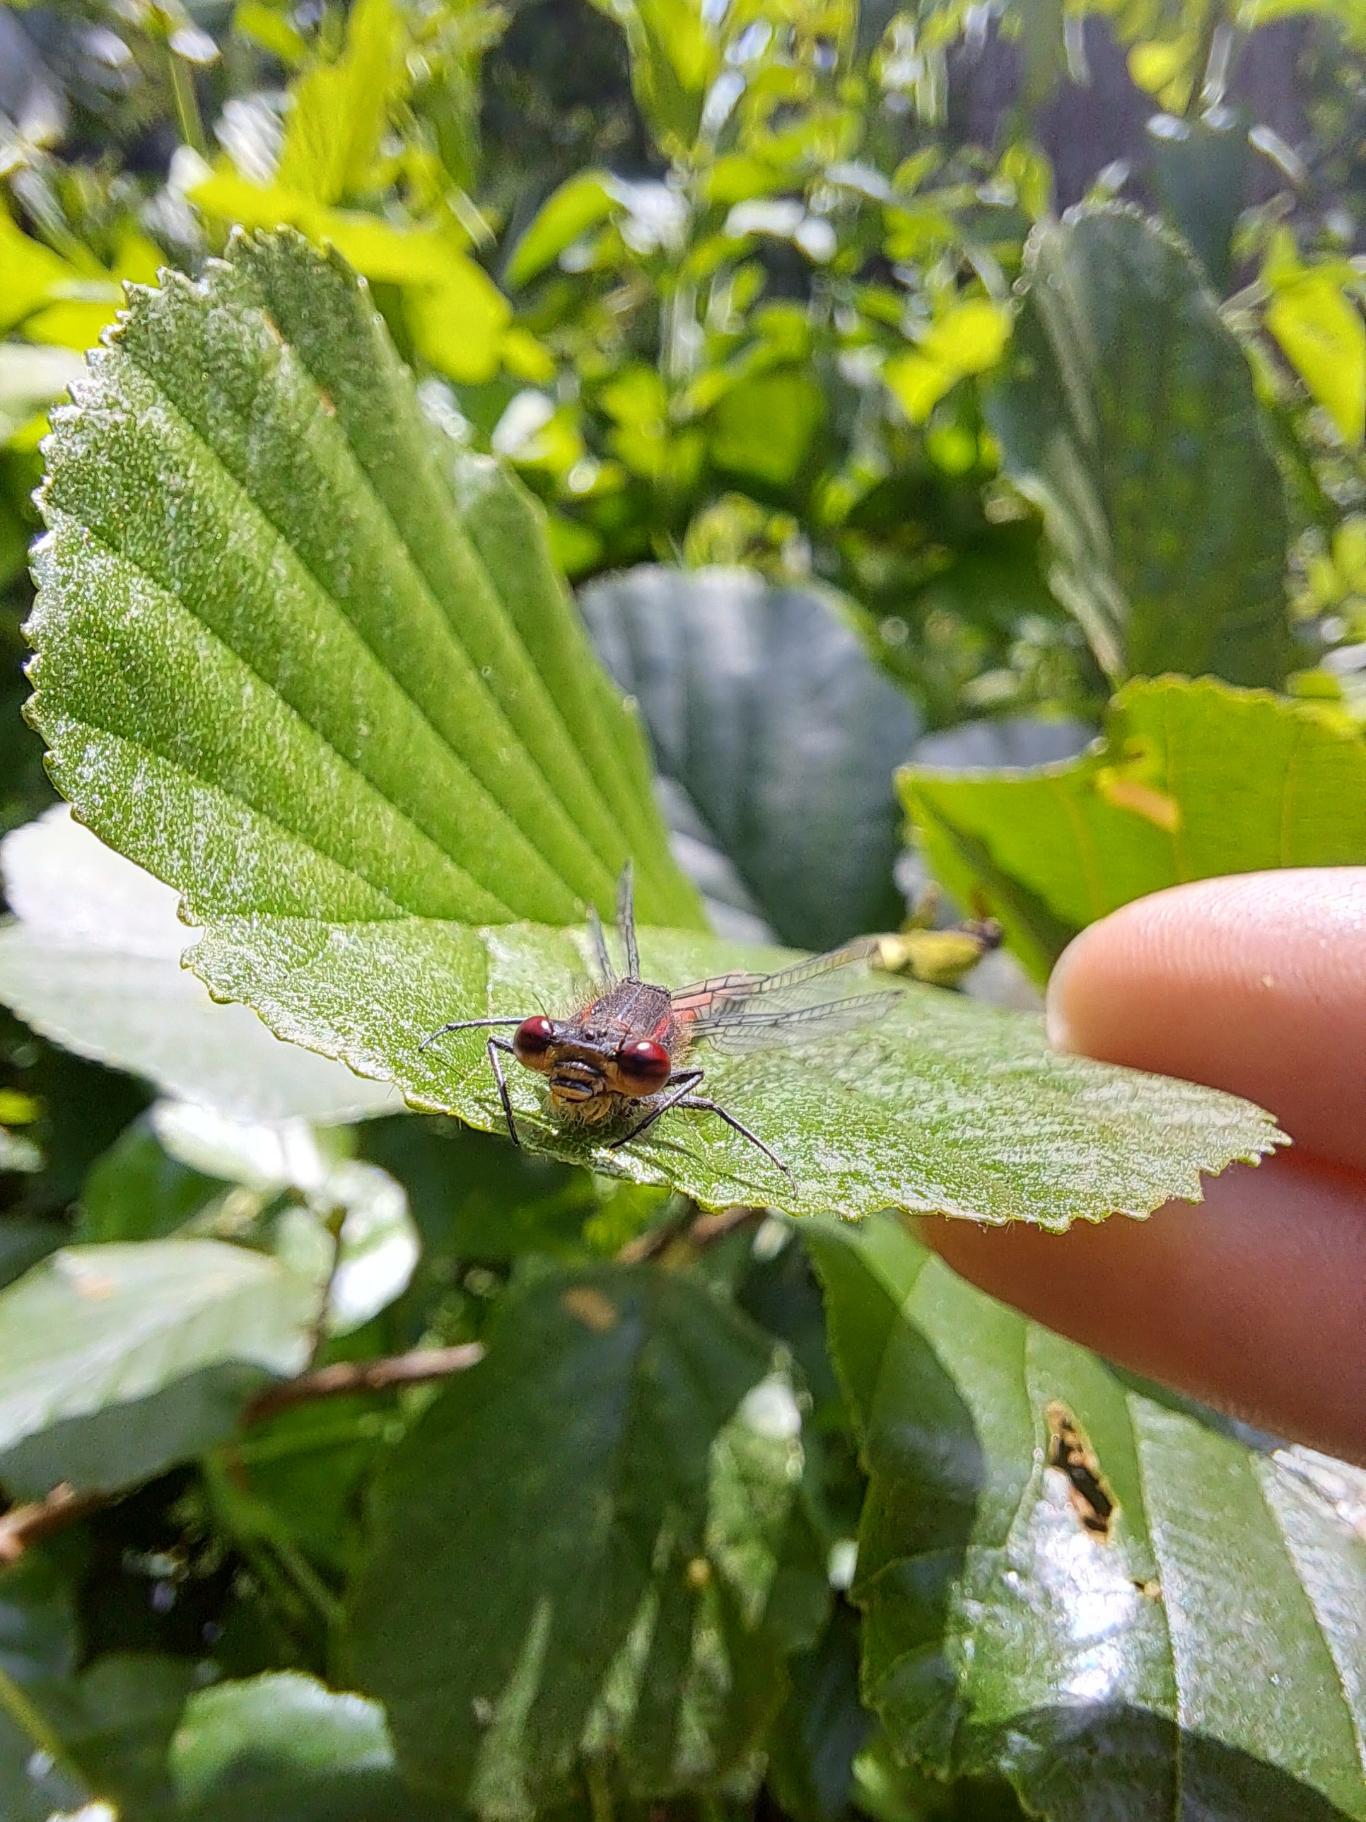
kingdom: Animalia
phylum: Arthropoda
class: Insecta
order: Odonata
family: Coenagrionidae
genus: Pyrrhosoma
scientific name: Pyrrhosoma nymphula
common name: Rød vandnymfe
